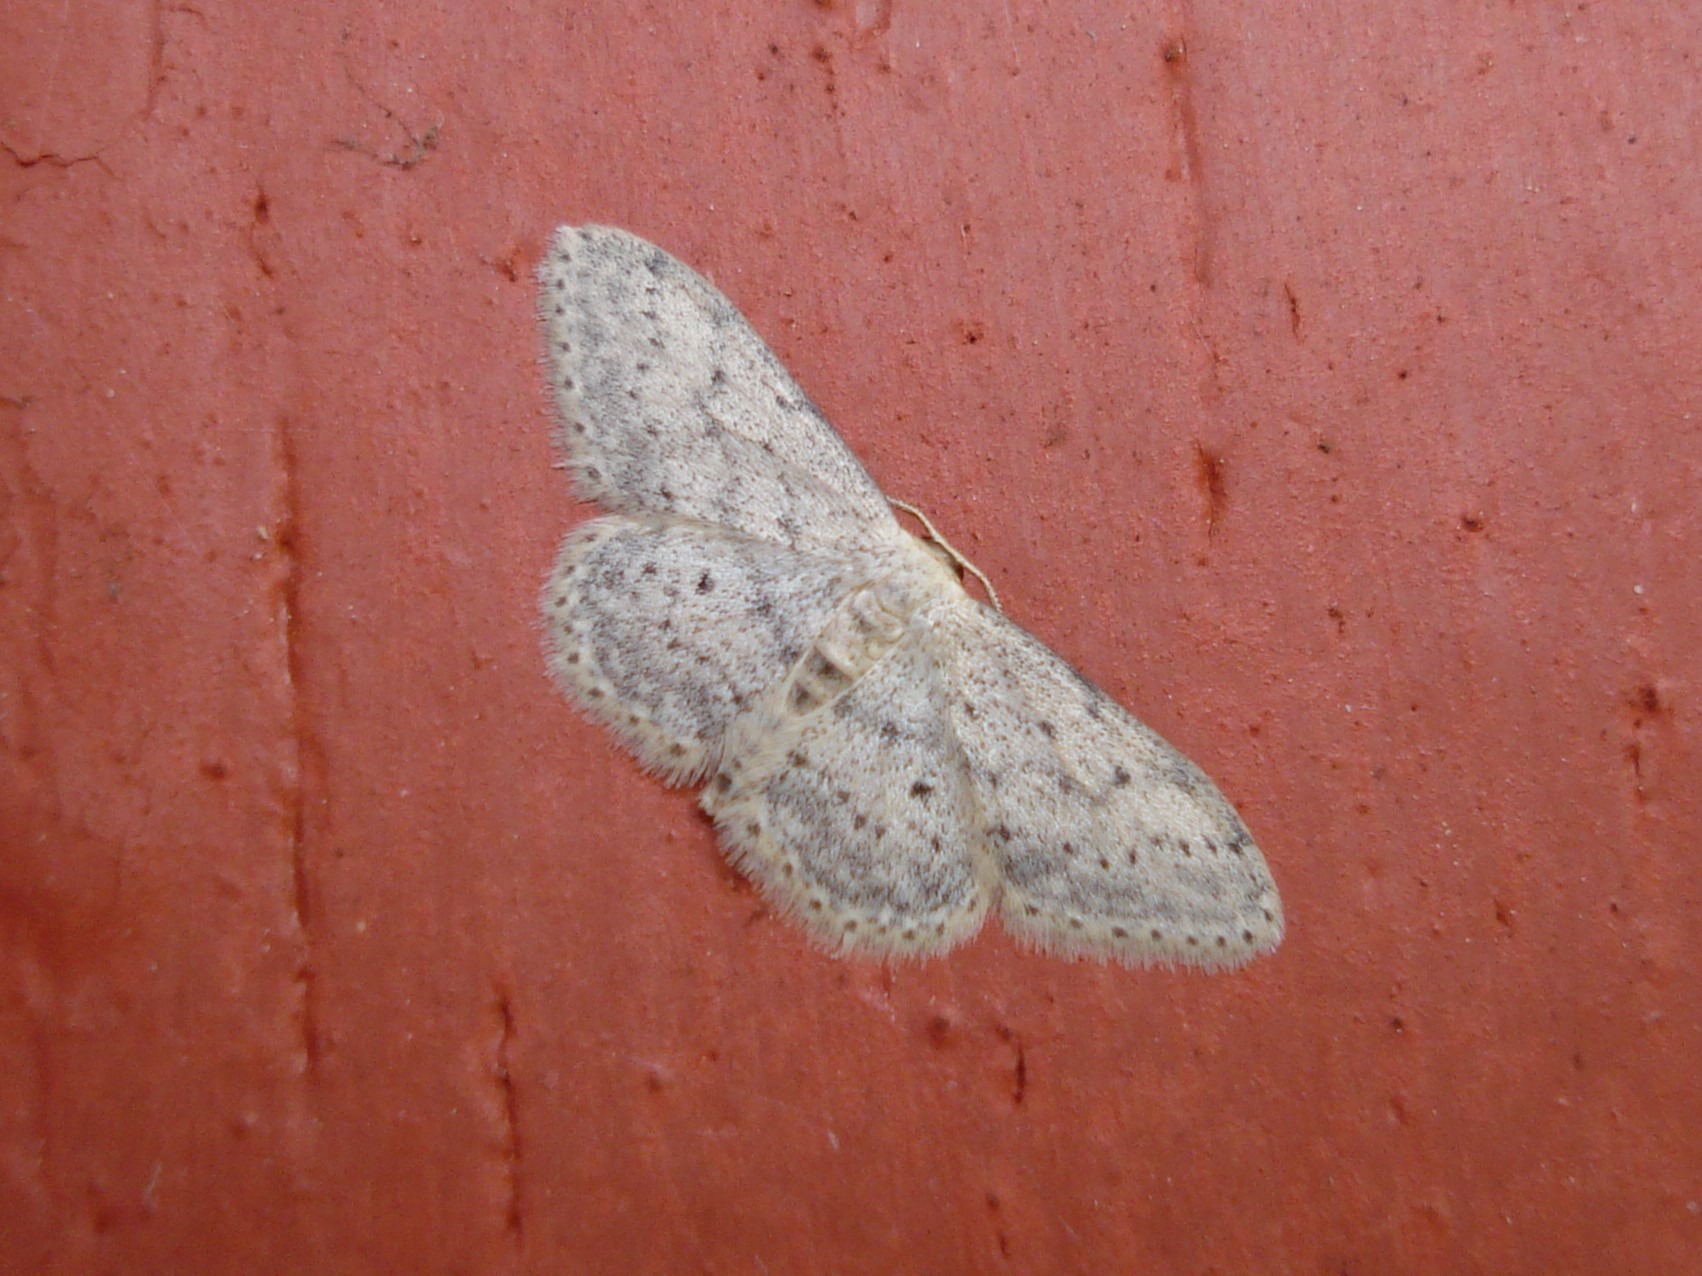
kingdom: Animalia
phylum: Arthropoda
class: Insecta
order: Lepidoptera
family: Geometridae
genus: Idaea
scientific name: Idaea seriata
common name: Gråplettet løvmåler
